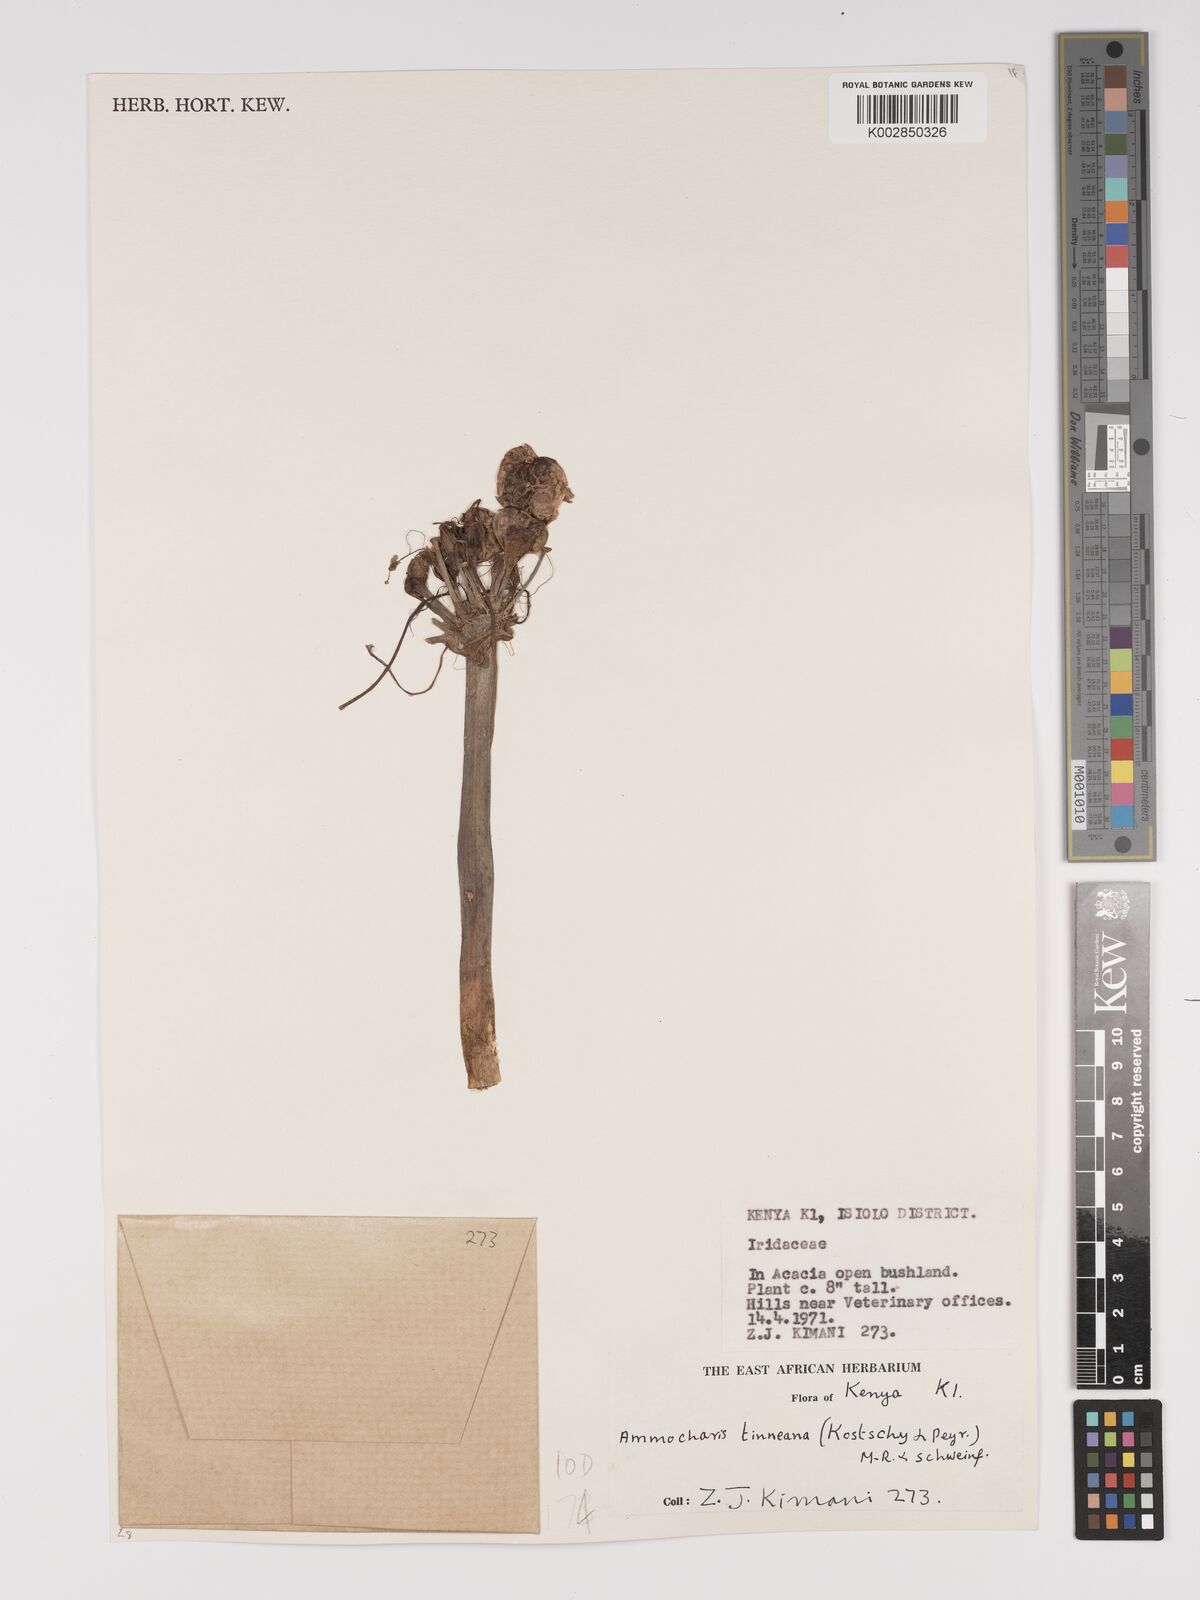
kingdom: Plantae
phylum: Tracheophyta
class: Liliopsida
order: Asparagales
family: Amaryllidaceae
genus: Ammocharis
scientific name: Ammocharis tinneana
